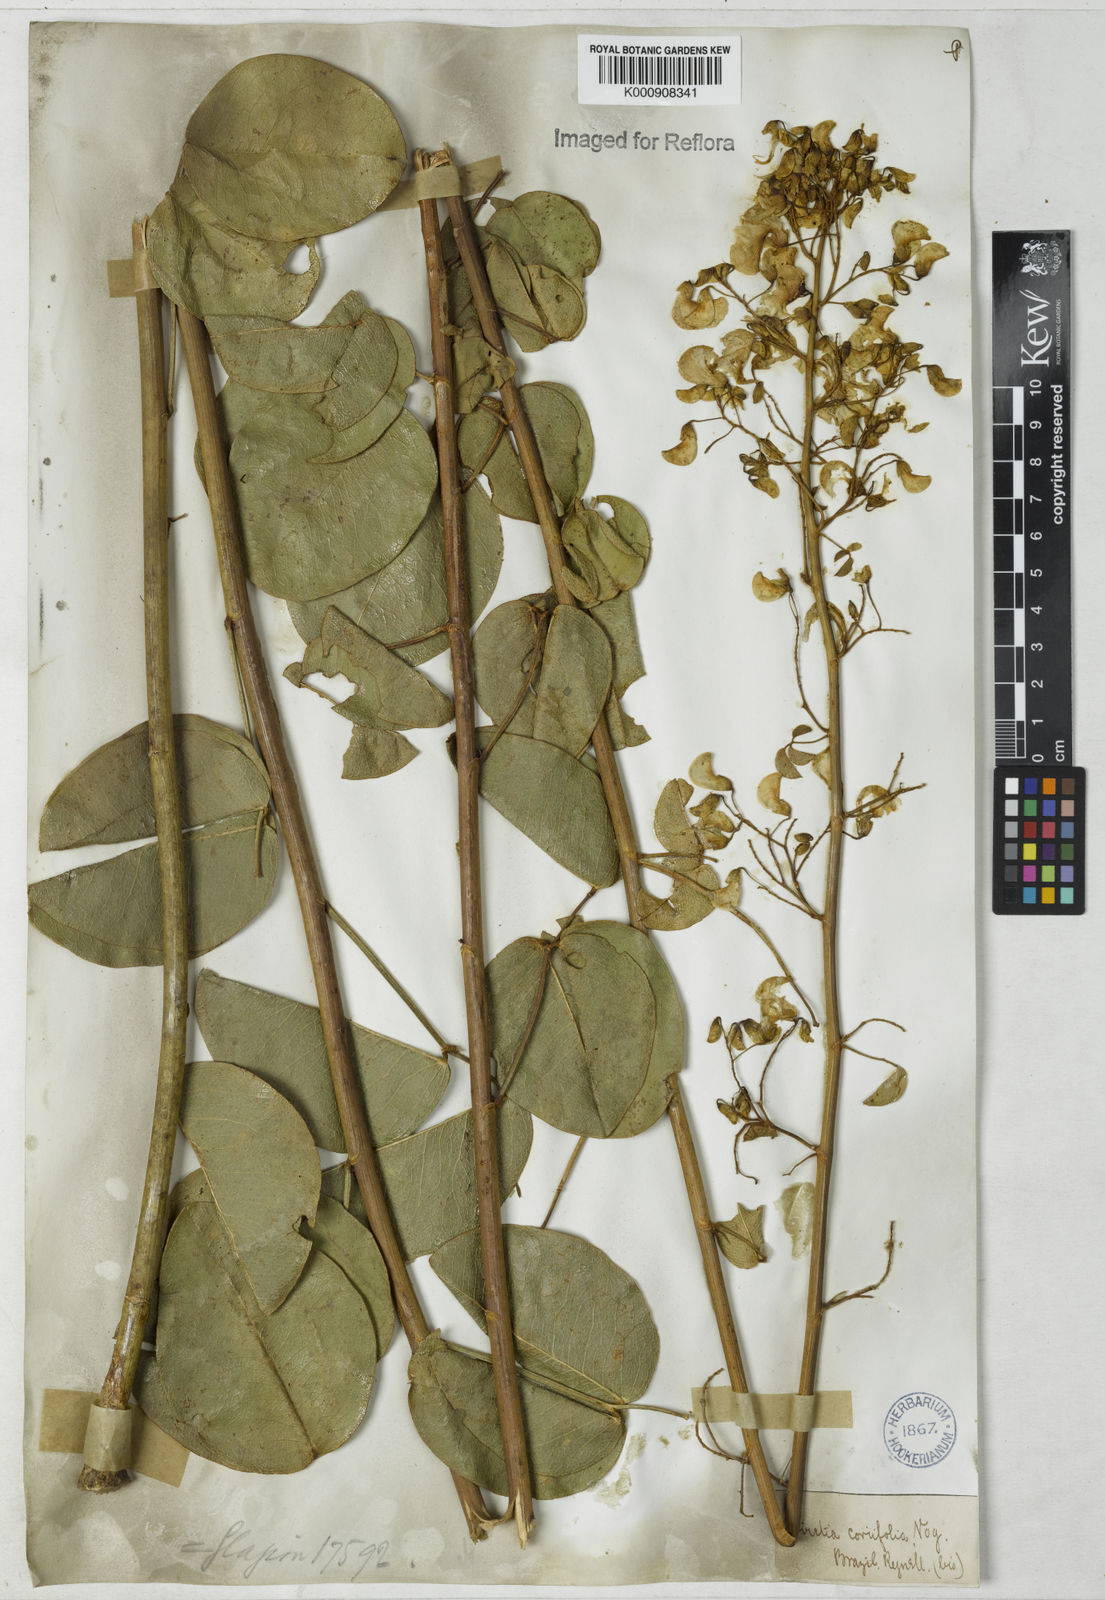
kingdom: Plantae
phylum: Tracheophyta
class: Magnoliopsida
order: Fabales
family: Fabaceae
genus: Poiretia
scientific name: Poiretia coriifolia
